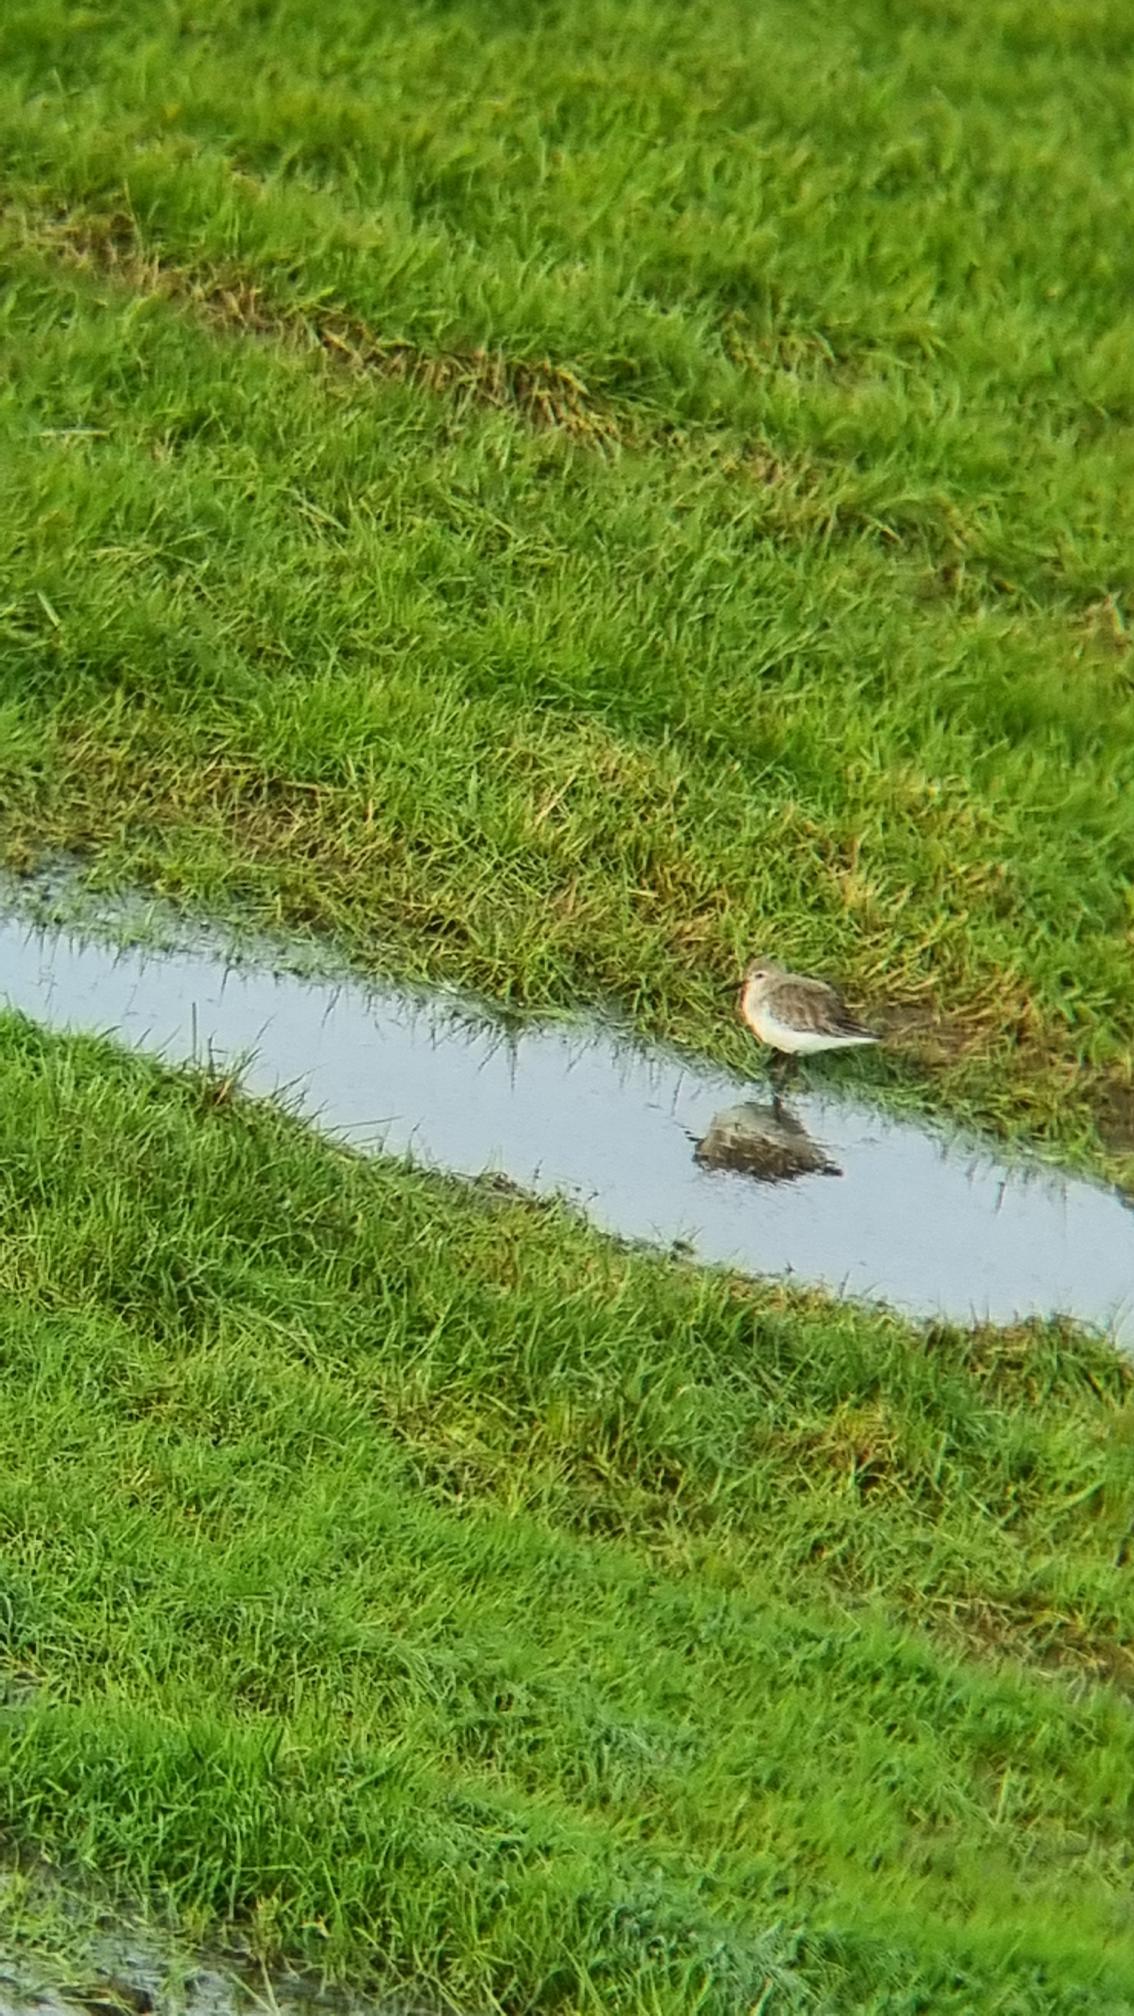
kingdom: Animalia
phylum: Chordata
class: Aves
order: Charadriiformes
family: Scolopacidae
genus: Calidris
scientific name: Calidris alpina
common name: Almindelig ryle
